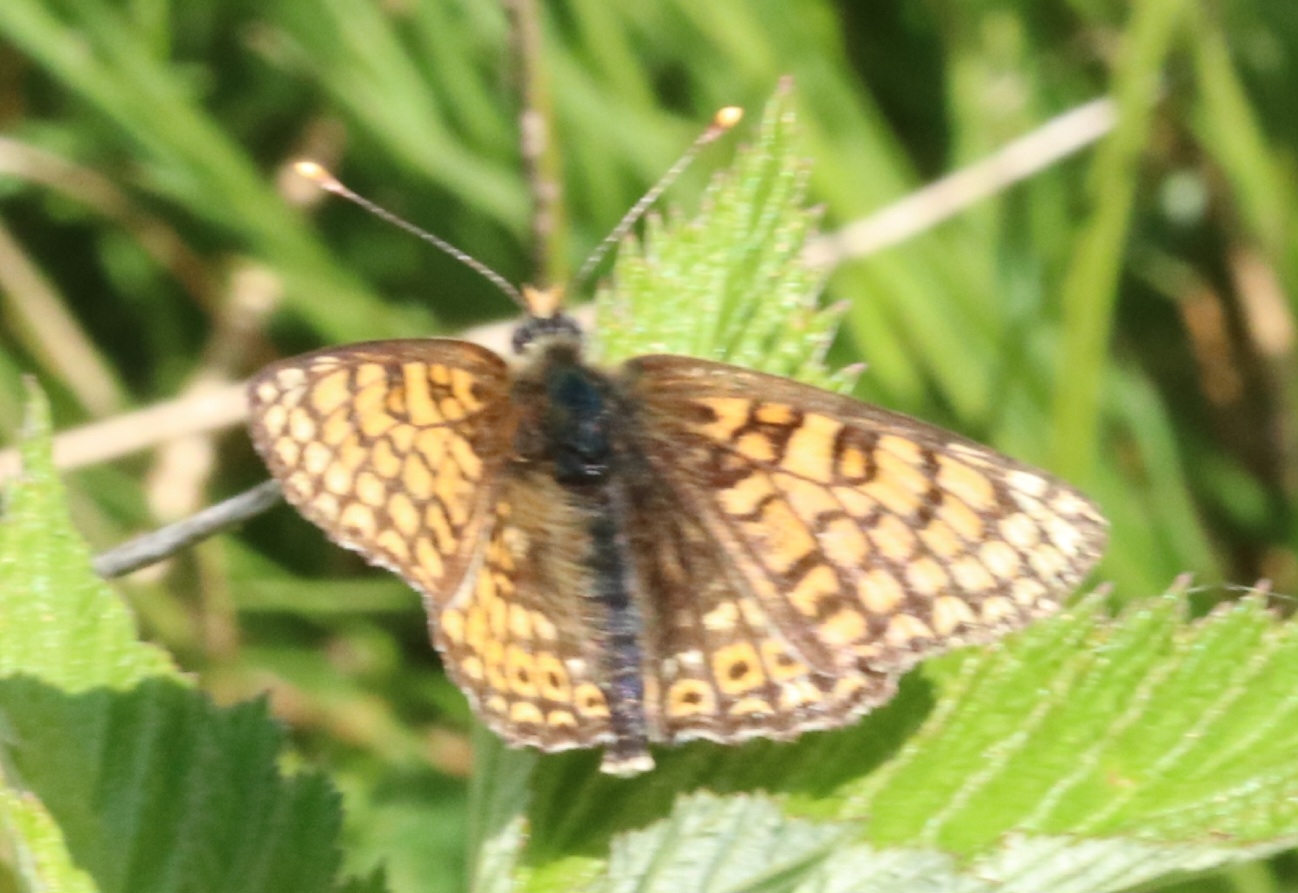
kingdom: Animalia
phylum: Arthropoda
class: Insecta
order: Lepidoptera
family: Nymphalidae
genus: Melitaea
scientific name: Melitaea cinxia
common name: Okkergul pletvinge
